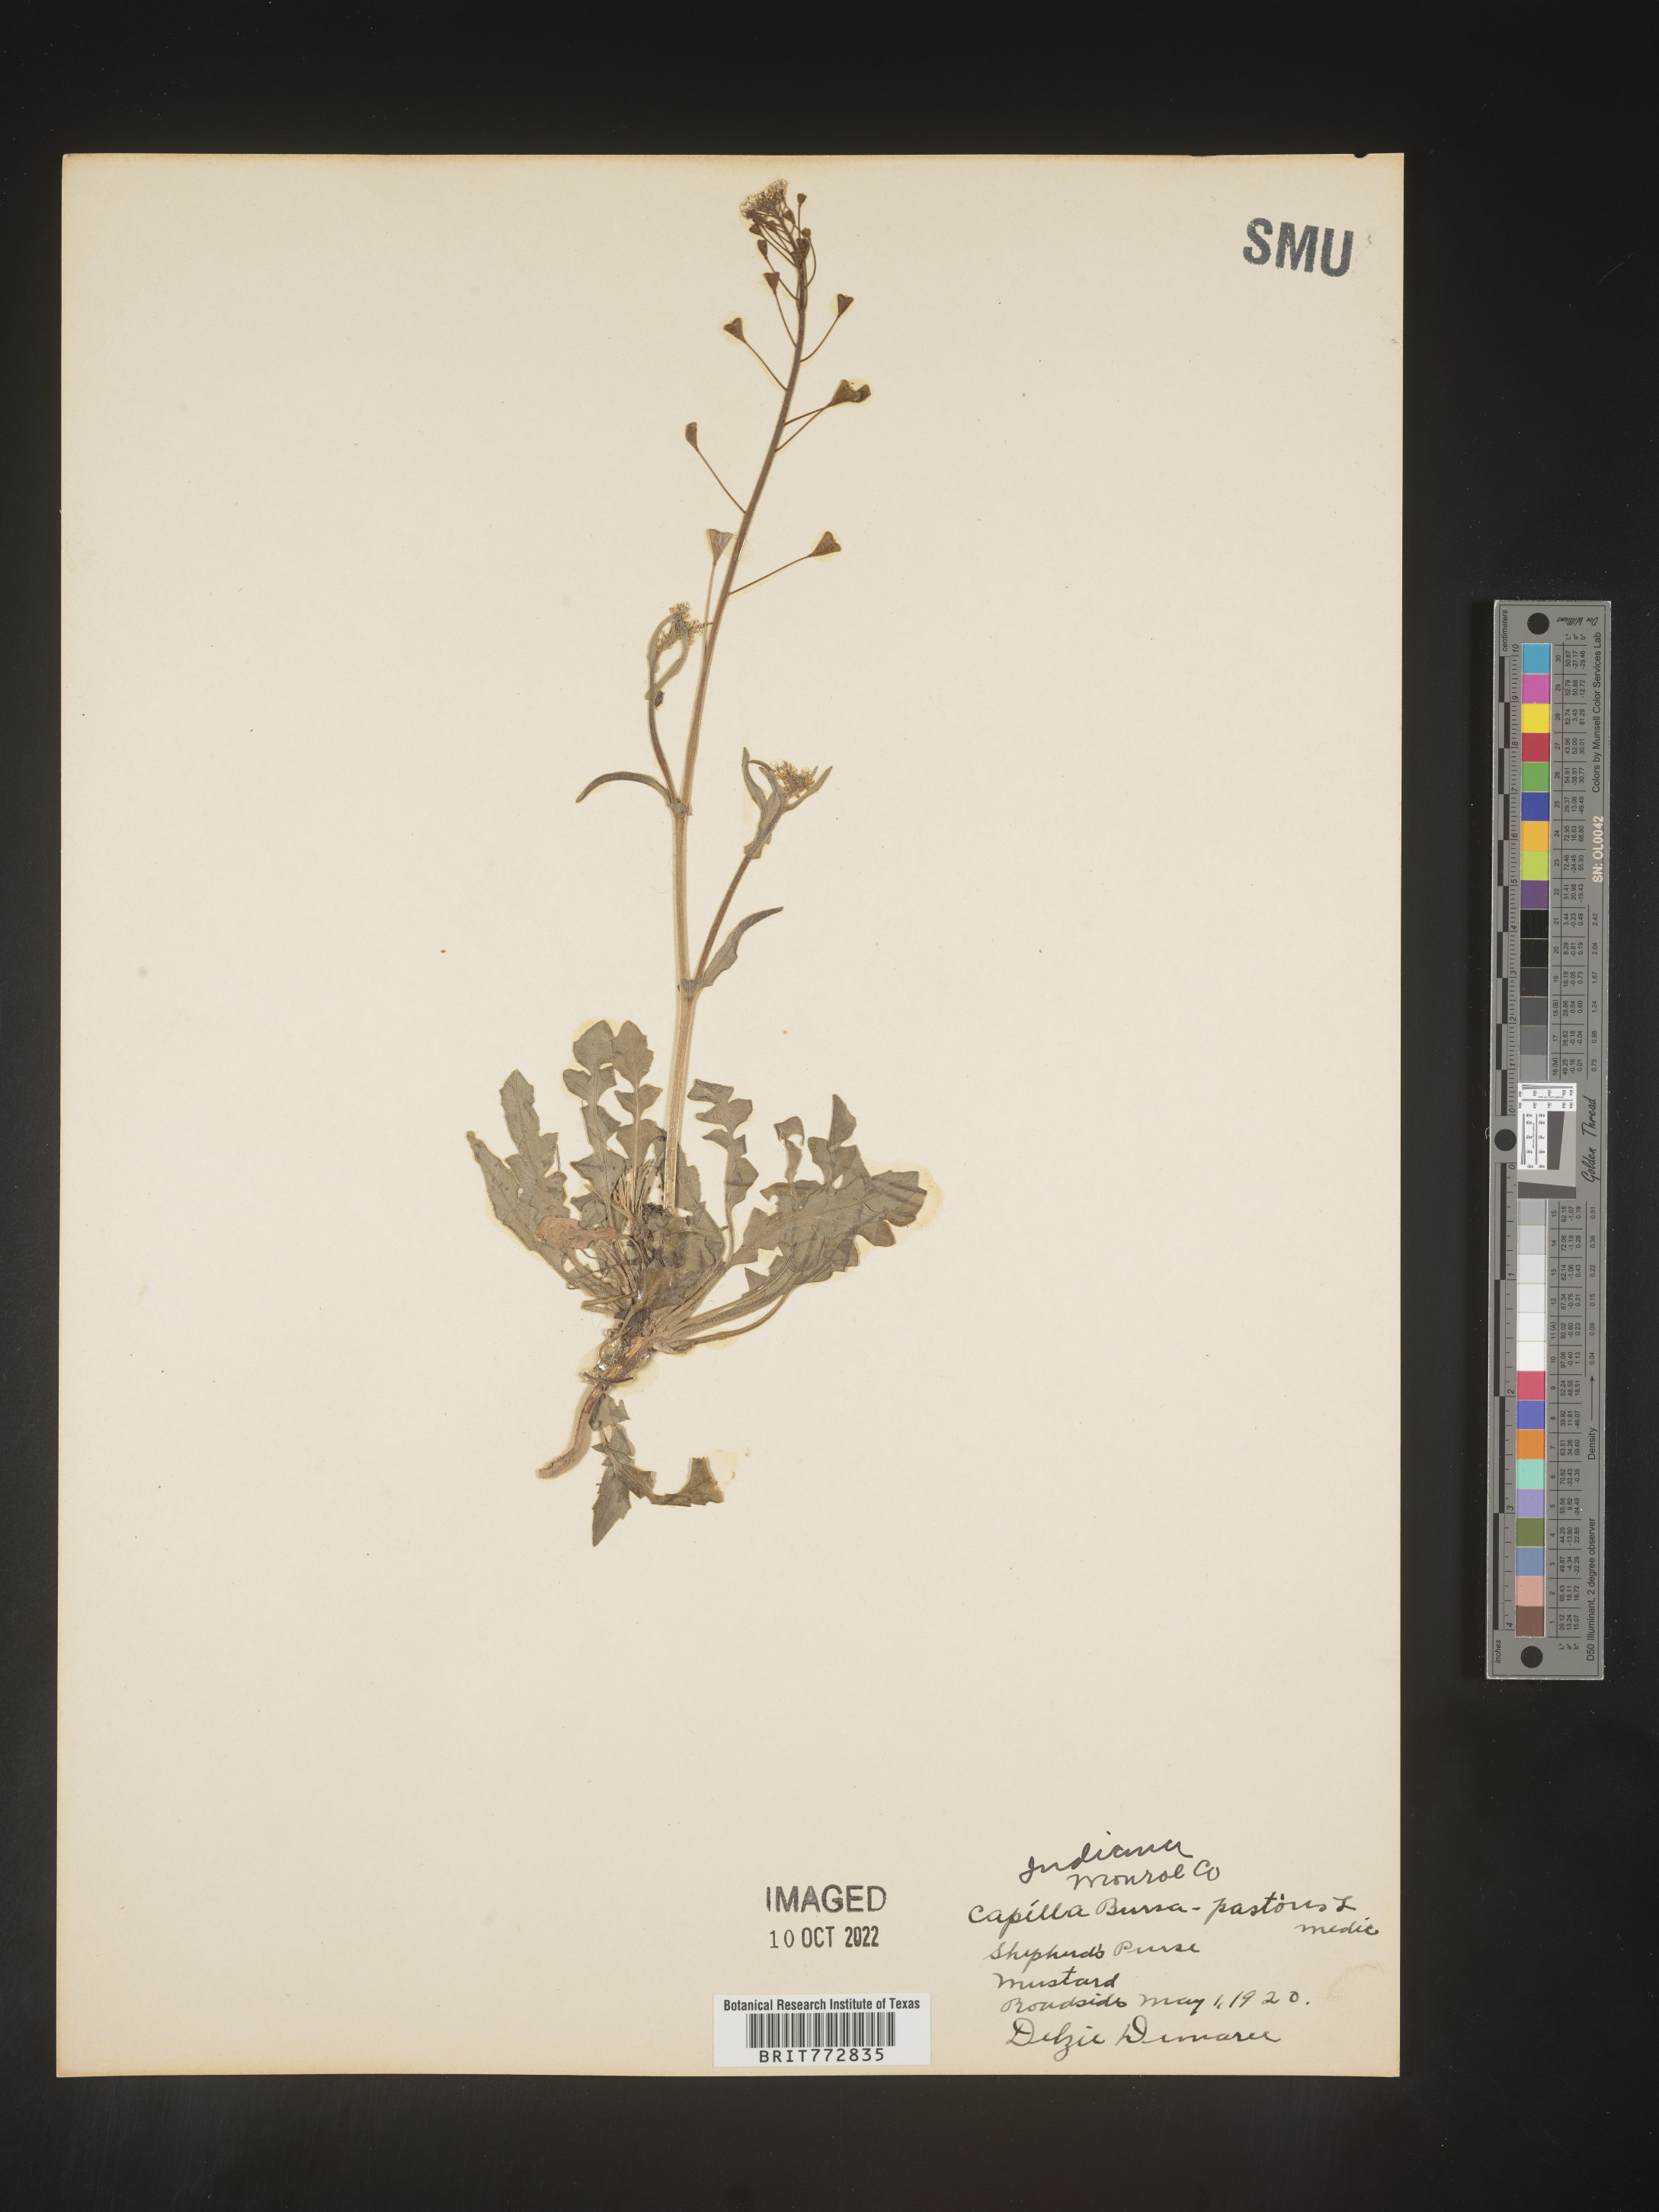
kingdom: Plantae
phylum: Tracheophyta
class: Magnoliopsida
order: Brassicales
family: Brassicaceae
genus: Capsella
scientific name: Capsella bursa-pastoris
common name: Shepherd's purse
